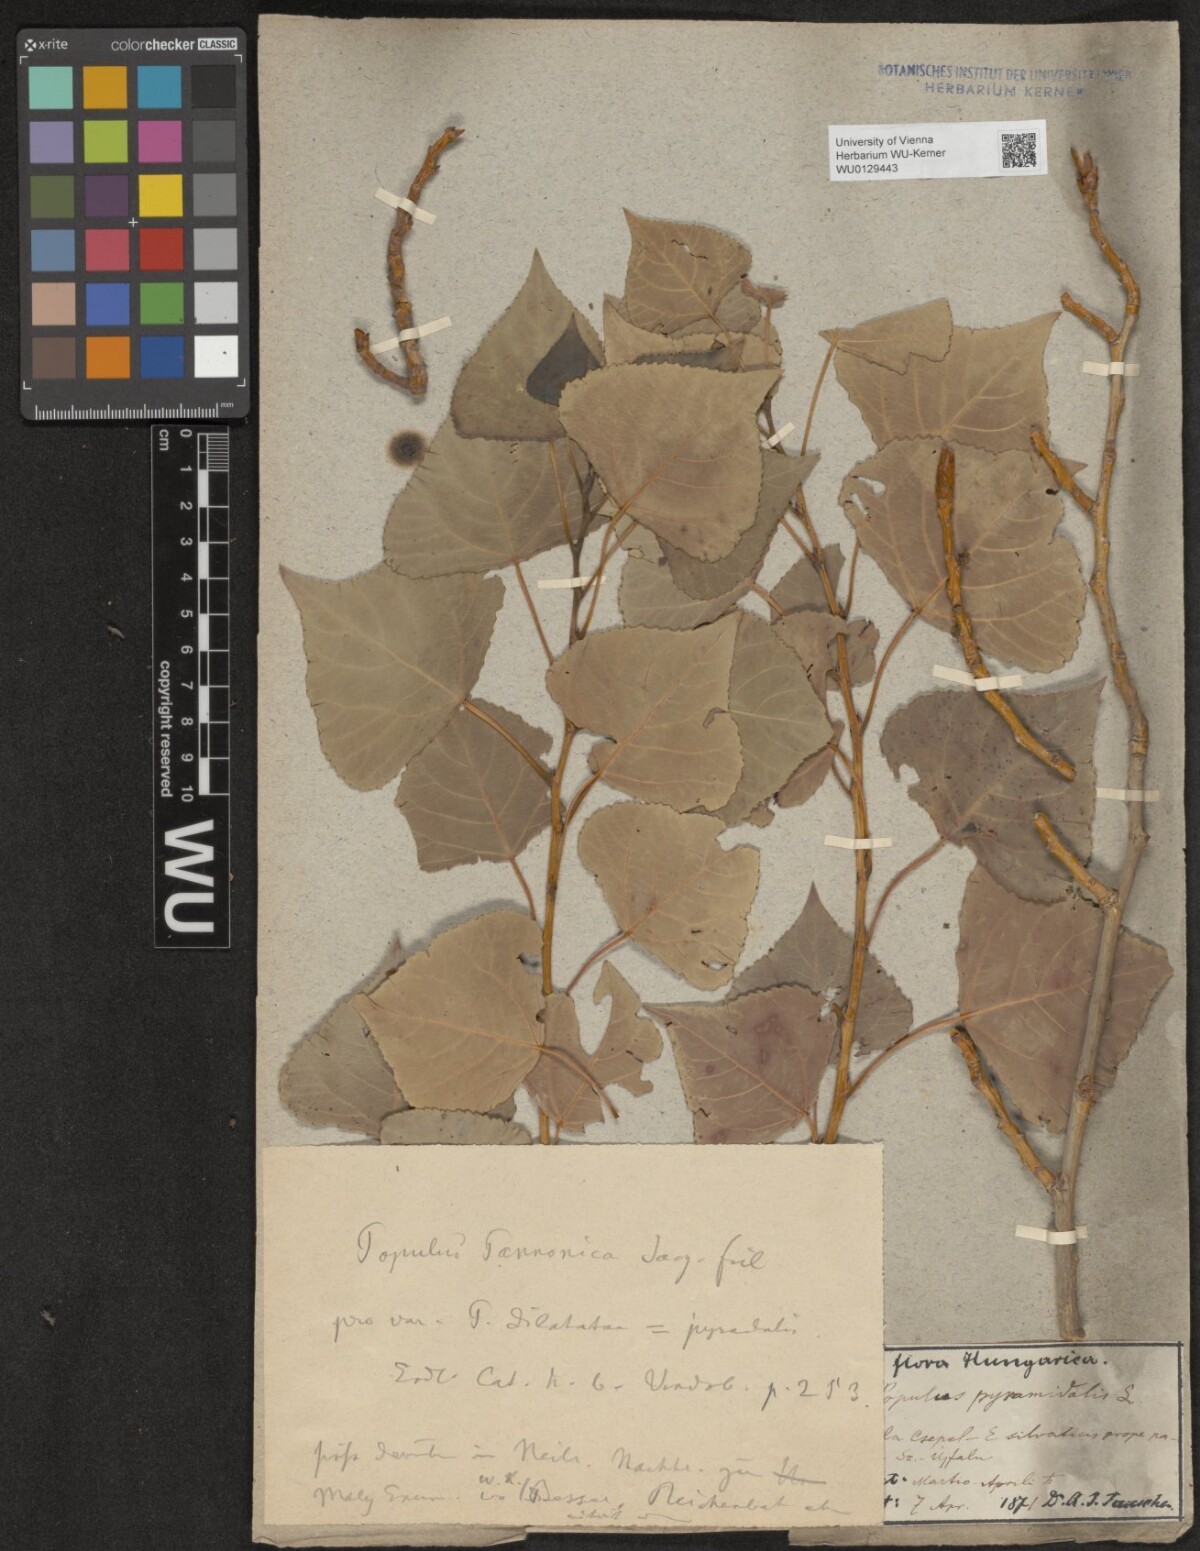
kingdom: Plantae
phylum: Tracheophyta
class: Magnoliopsida
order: Malpighiales
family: Salicaceae
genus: Populus
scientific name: Populus nigra
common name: Black poplar
